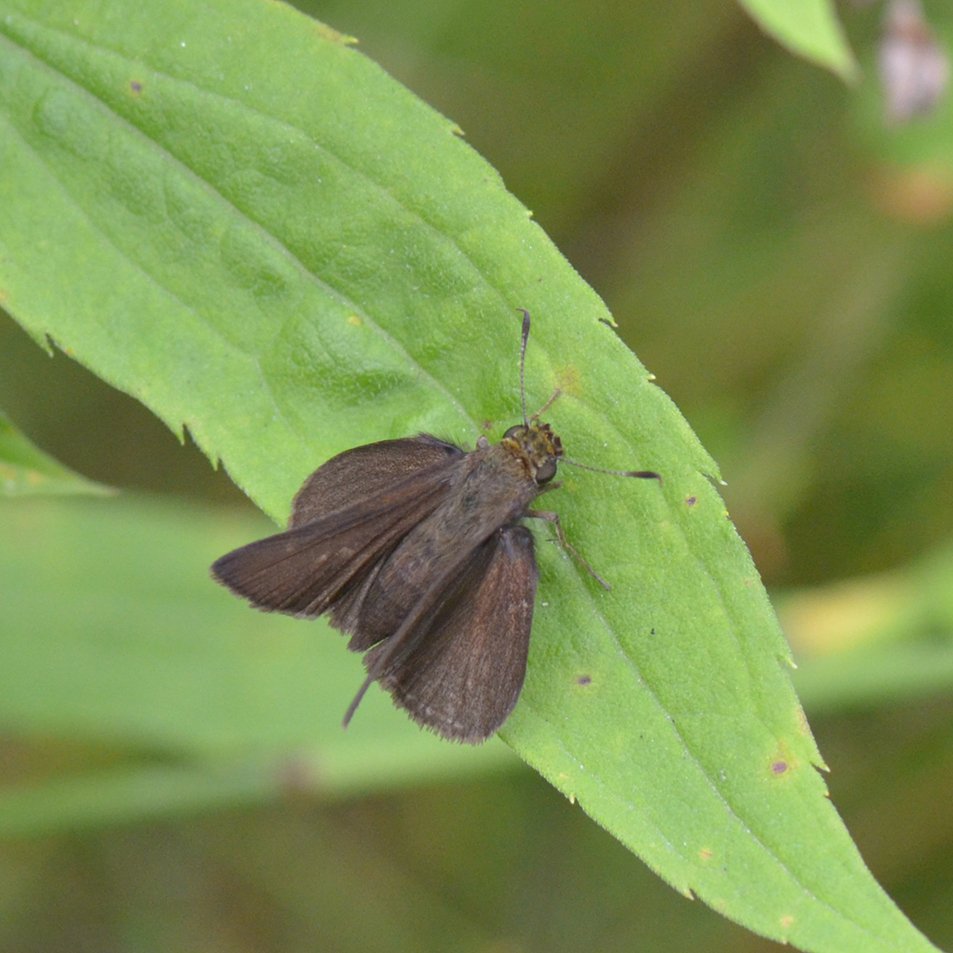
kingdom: Animalia
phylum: Arthropoda
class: Insecta
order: Lepidoptera
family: Hesperiidae
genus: Euphyes
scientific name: Euphyes vestris
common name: Dun Skipper
